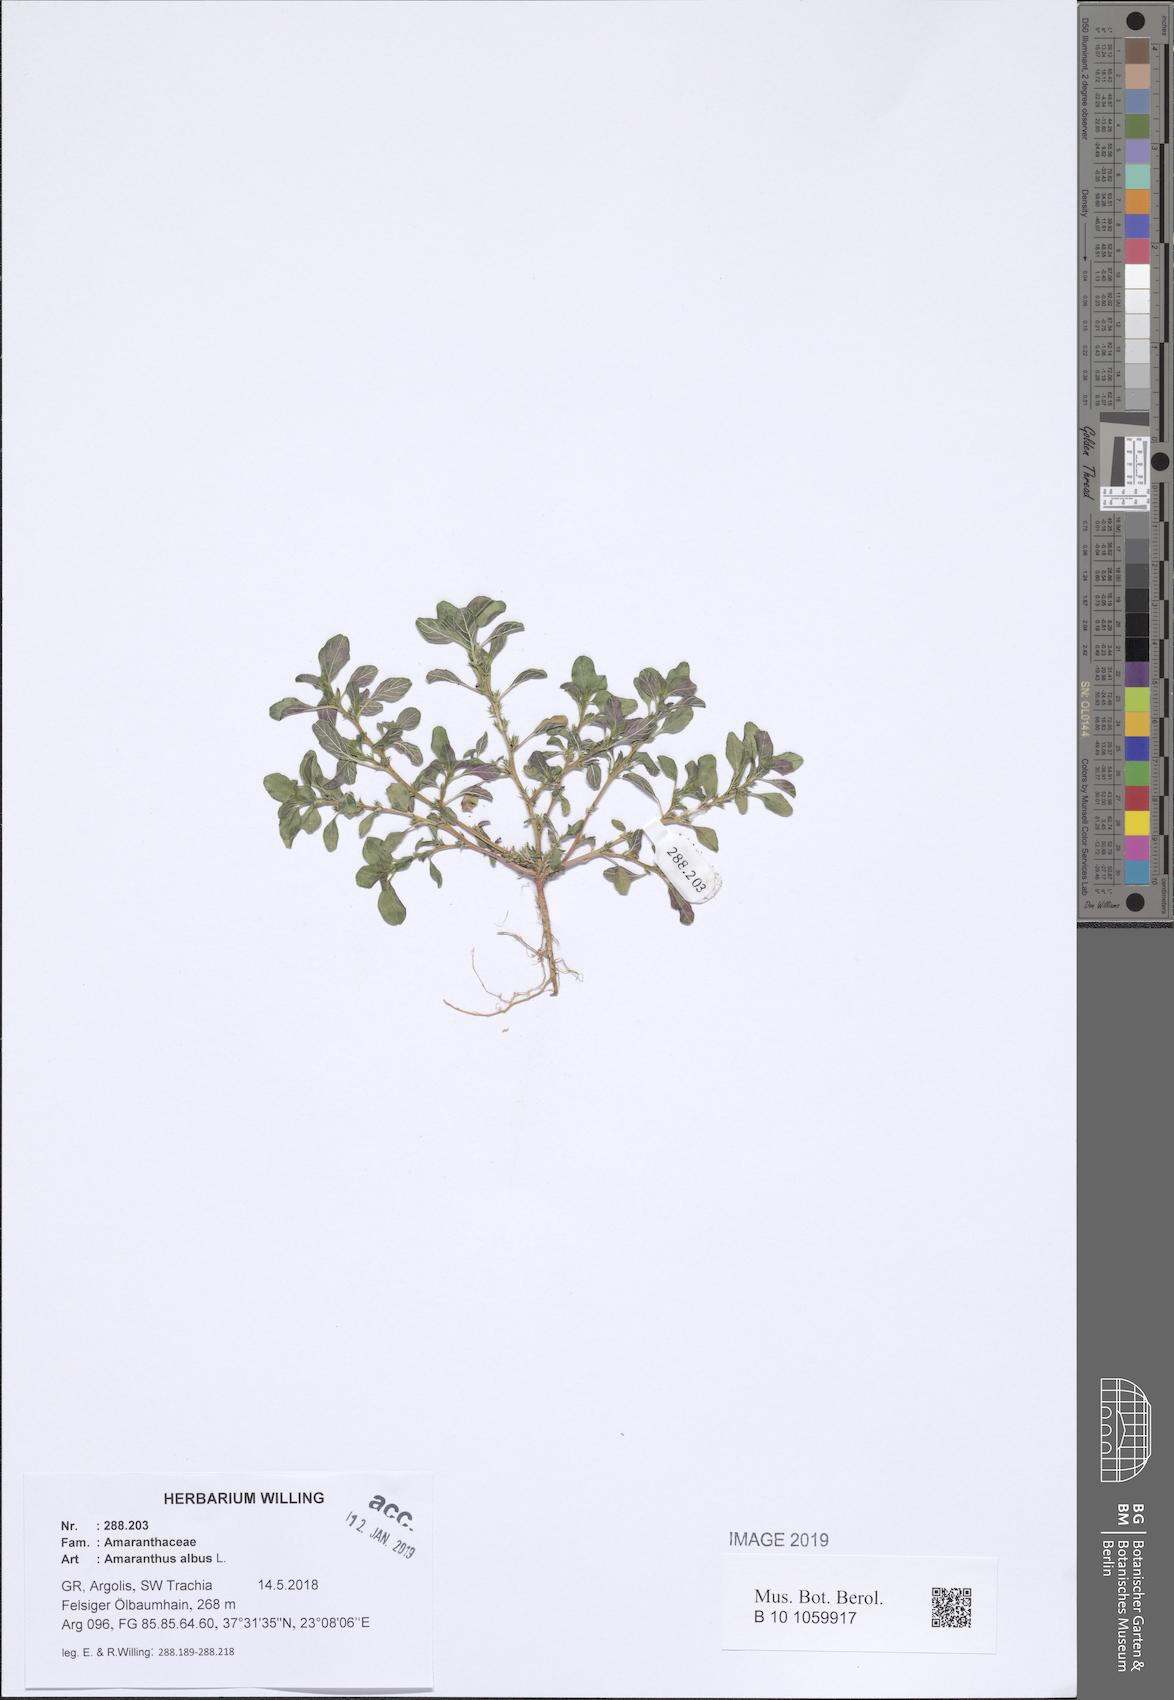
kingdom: Plantae
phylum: Tracheophyta
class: Magnoliopsida
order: Caryophyllales
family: Amaranthaceae
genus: Amaranthus
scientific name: Amaranthus albus
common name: White pigweed
